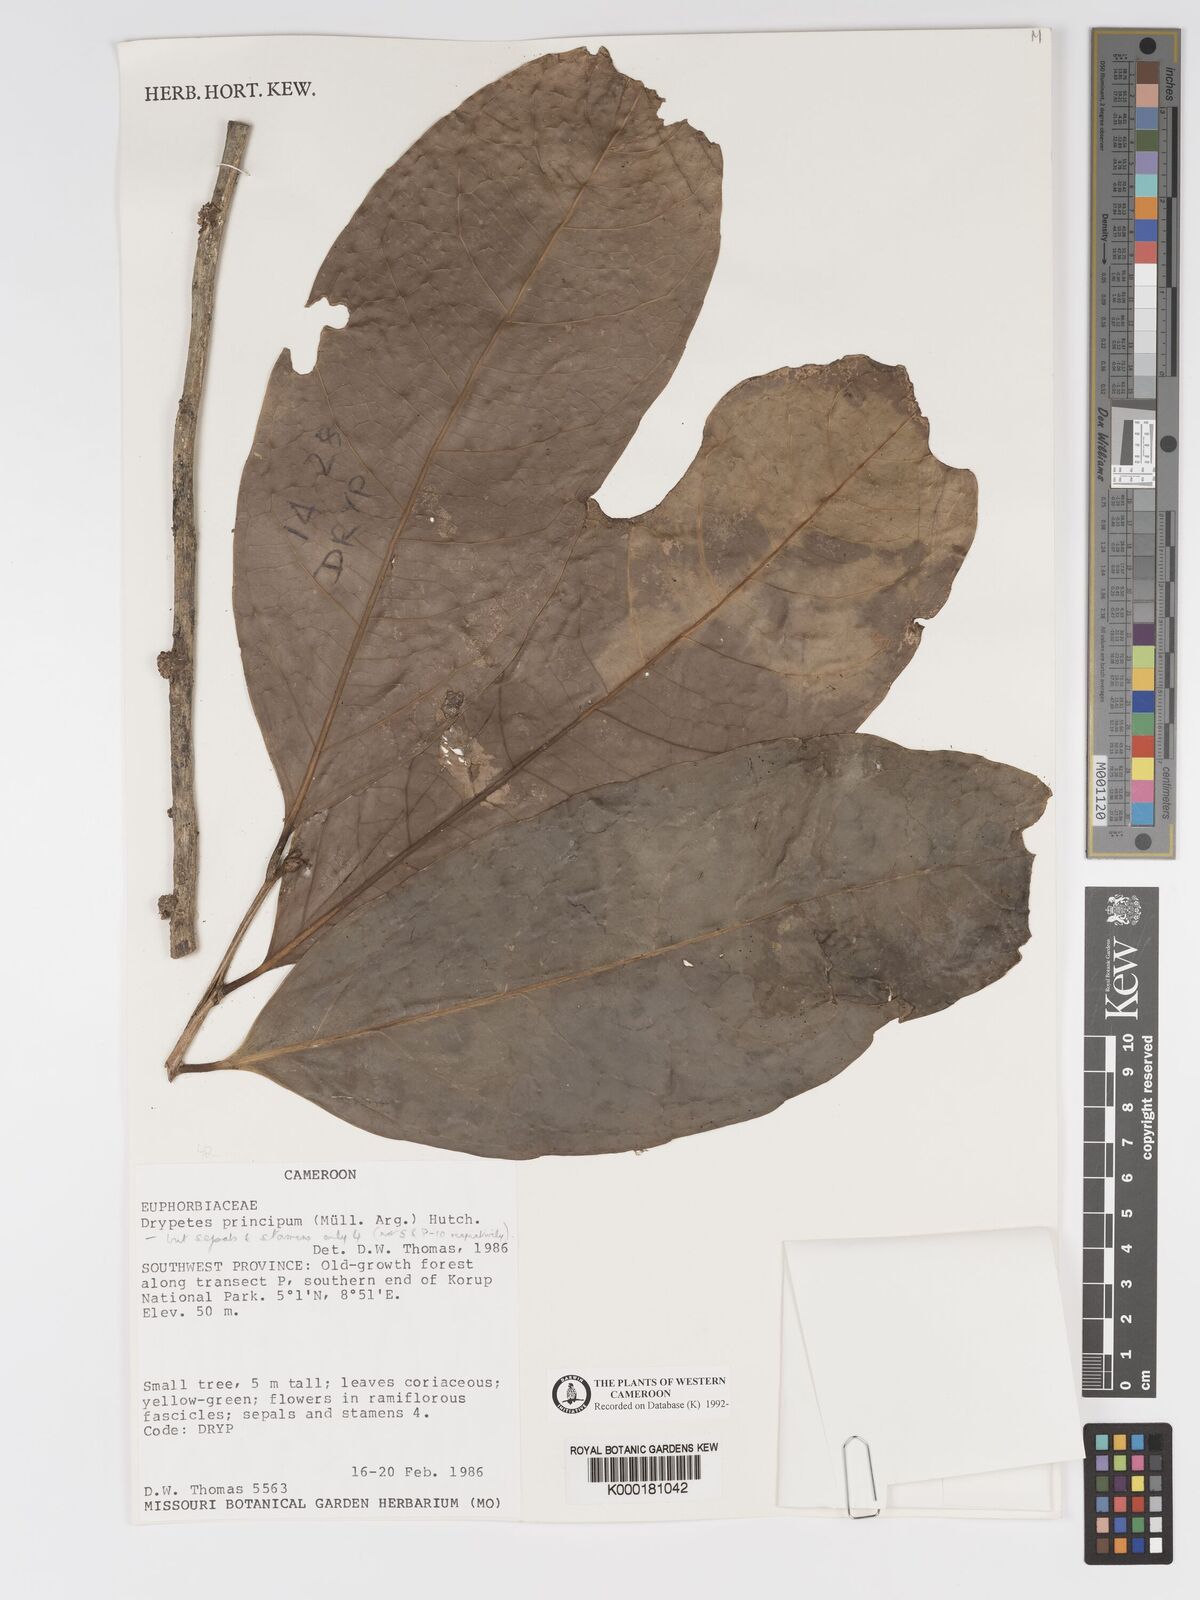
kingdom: Plantae
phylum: Tracheophyta
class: Magnoliopsida
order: Malpighiales
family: Putranjivaceae
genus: Drypetes
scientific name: Drypetes principum
